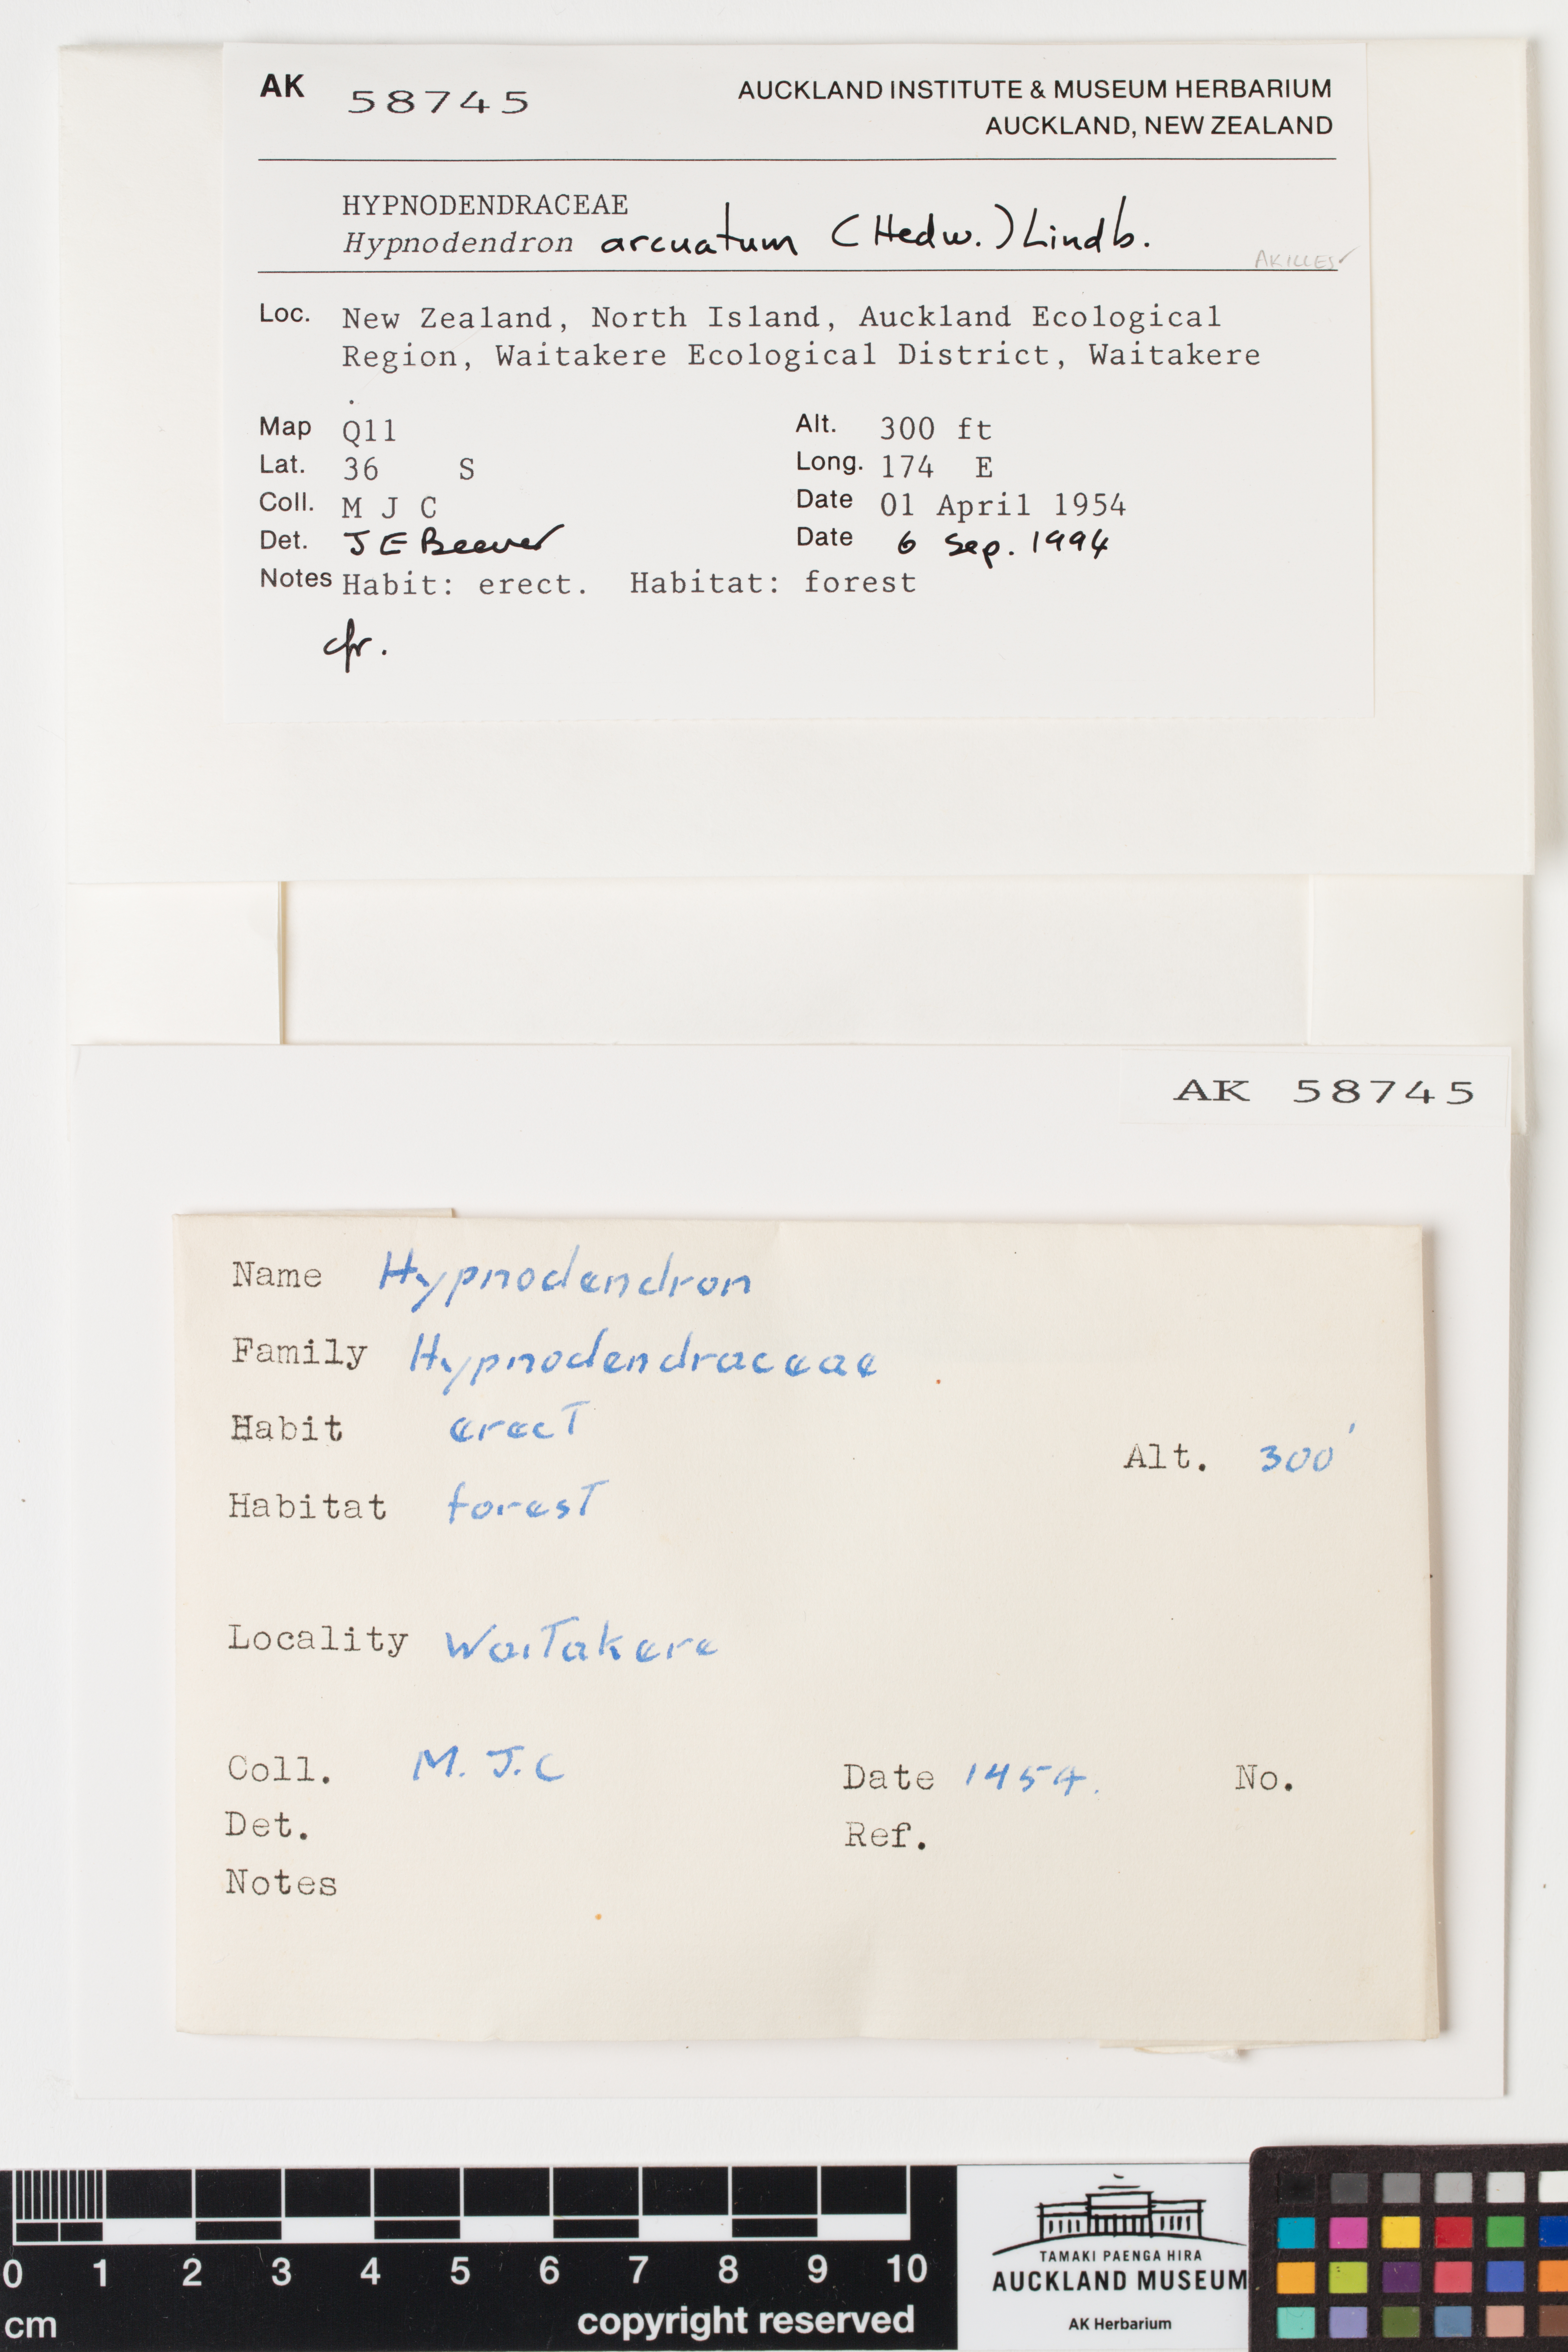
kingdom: Plantae
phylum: Bryophyta
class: Bryopsida
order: Hypnodendrales
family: Spiridentaceae
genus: Hypnodendron
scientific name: Hypnodendron arcuatum
